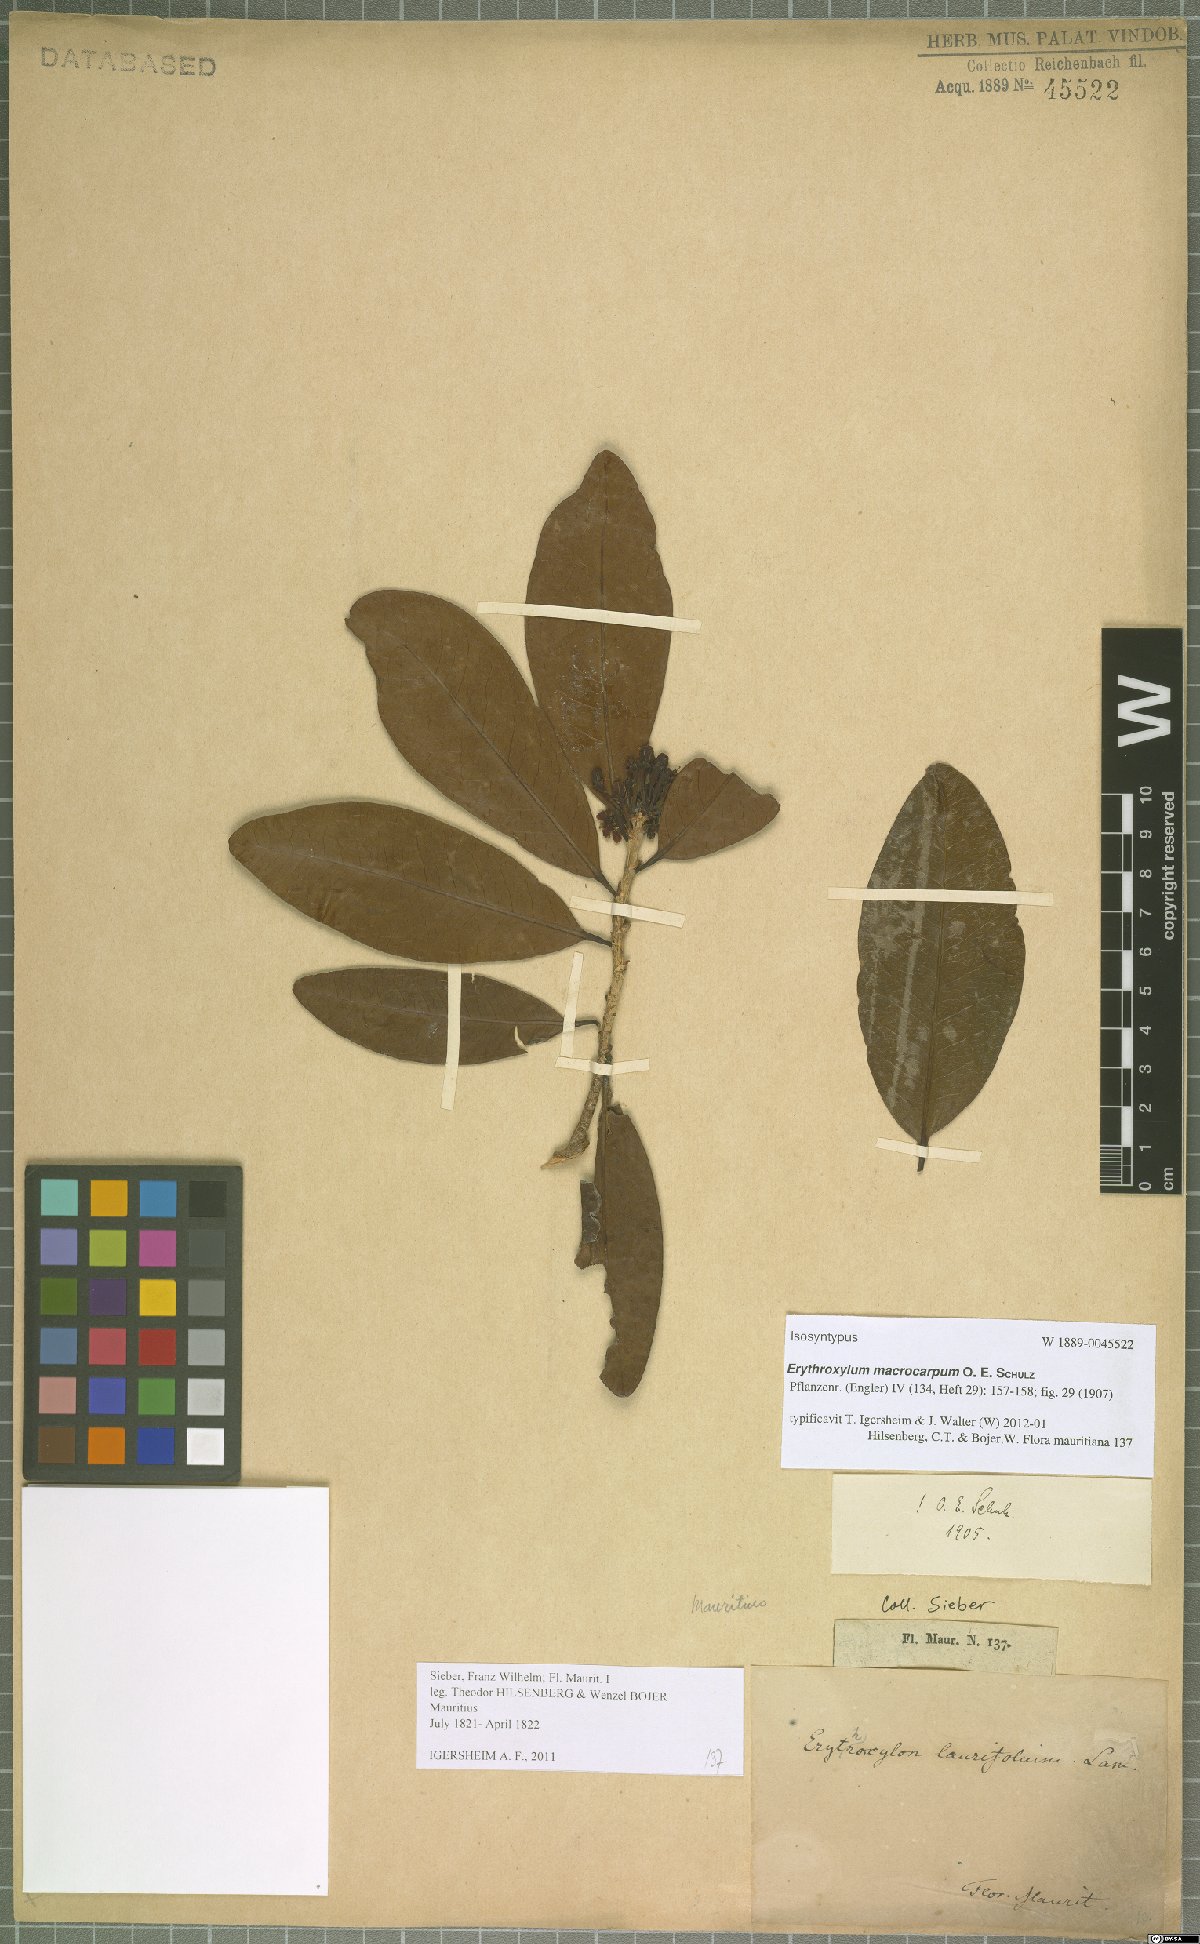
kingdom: Plantae
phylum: Tracheophyta
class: Magnoliopsida
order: Malpighiales
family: Erythroxylaceae
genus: Erythroxylum
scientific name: Erythroxylum macrocarpum
